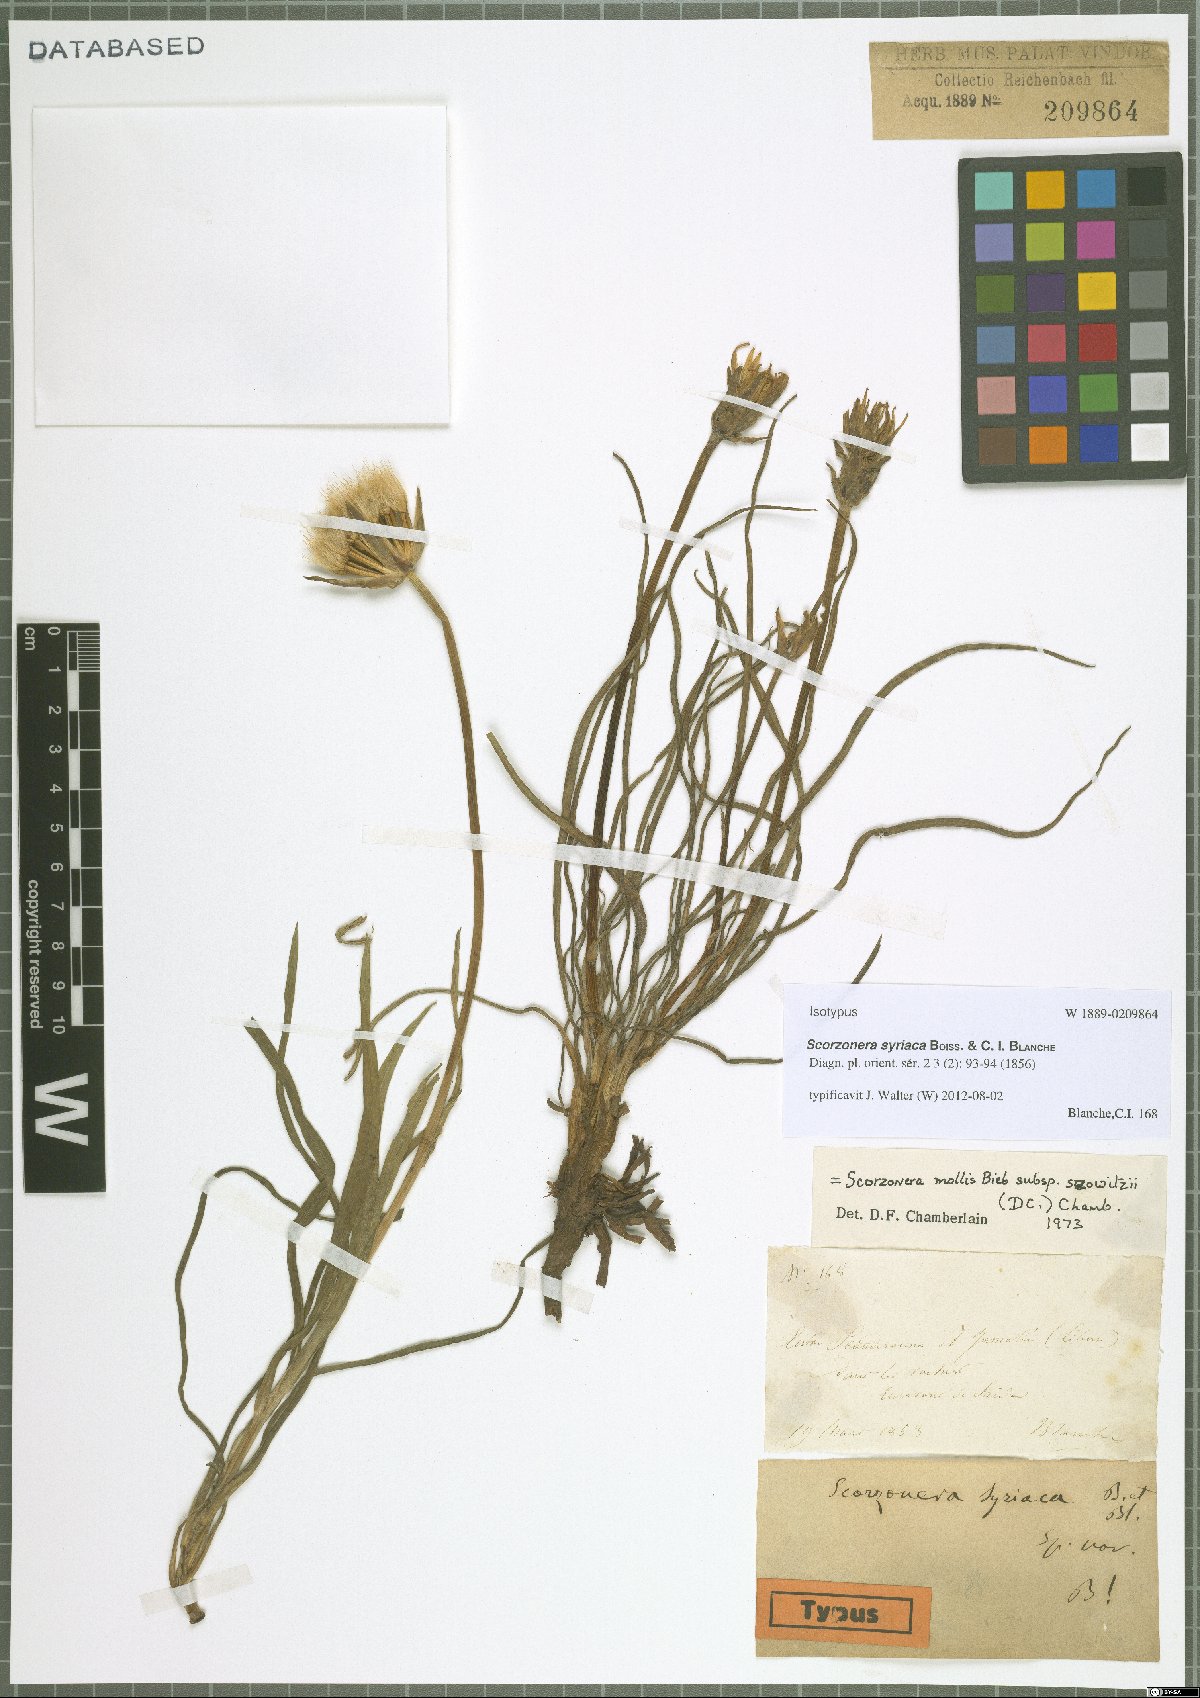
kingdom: Plantae
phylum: Tracheophyta
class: Magnoliopsida
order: Asterales
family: Asteraceae
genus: Candollea
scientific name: Candollea syriaca
